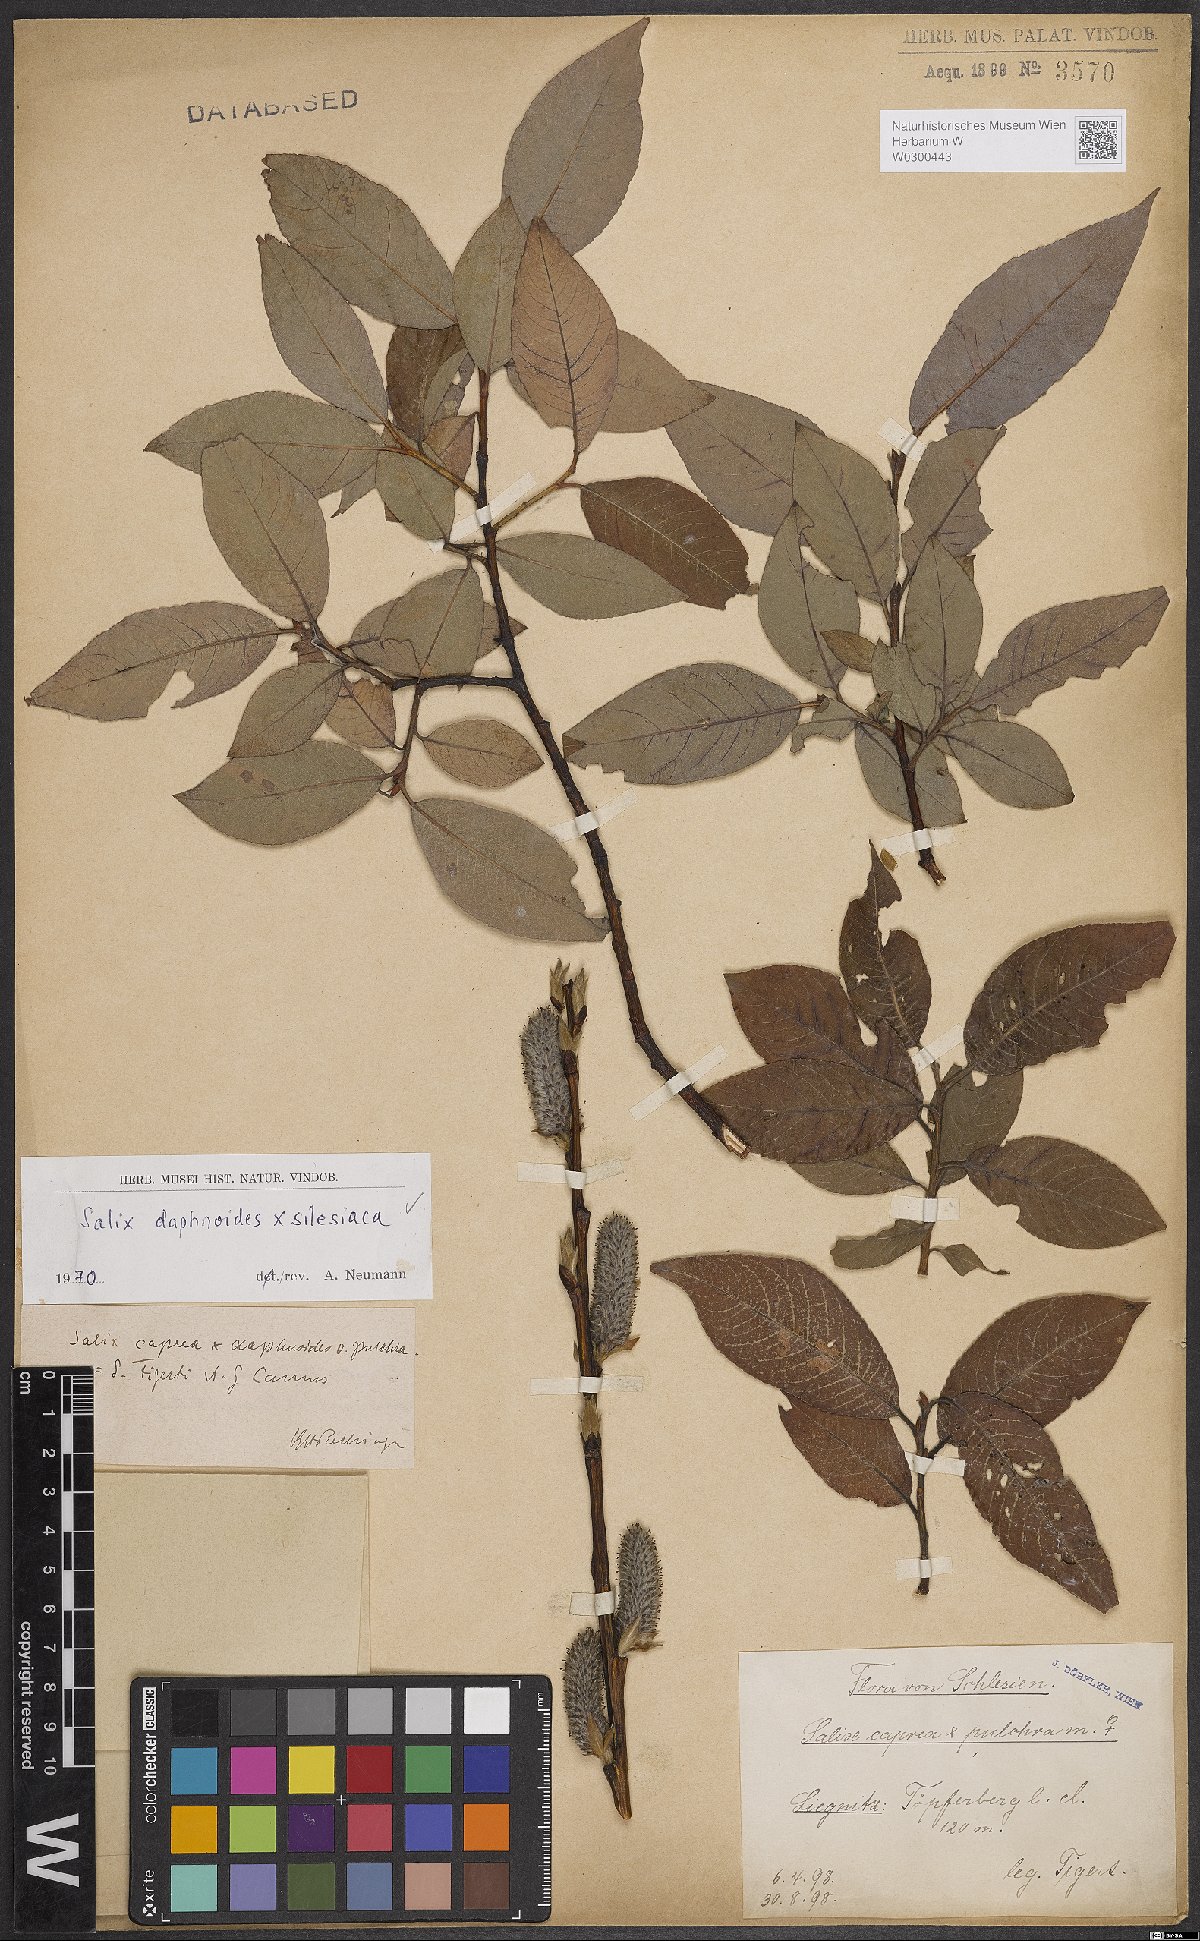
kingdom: Plantae
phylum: Tracheophyta
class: Magnoliopsida
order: Malpighiales
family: Salicaceae
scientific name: Salicaceae
